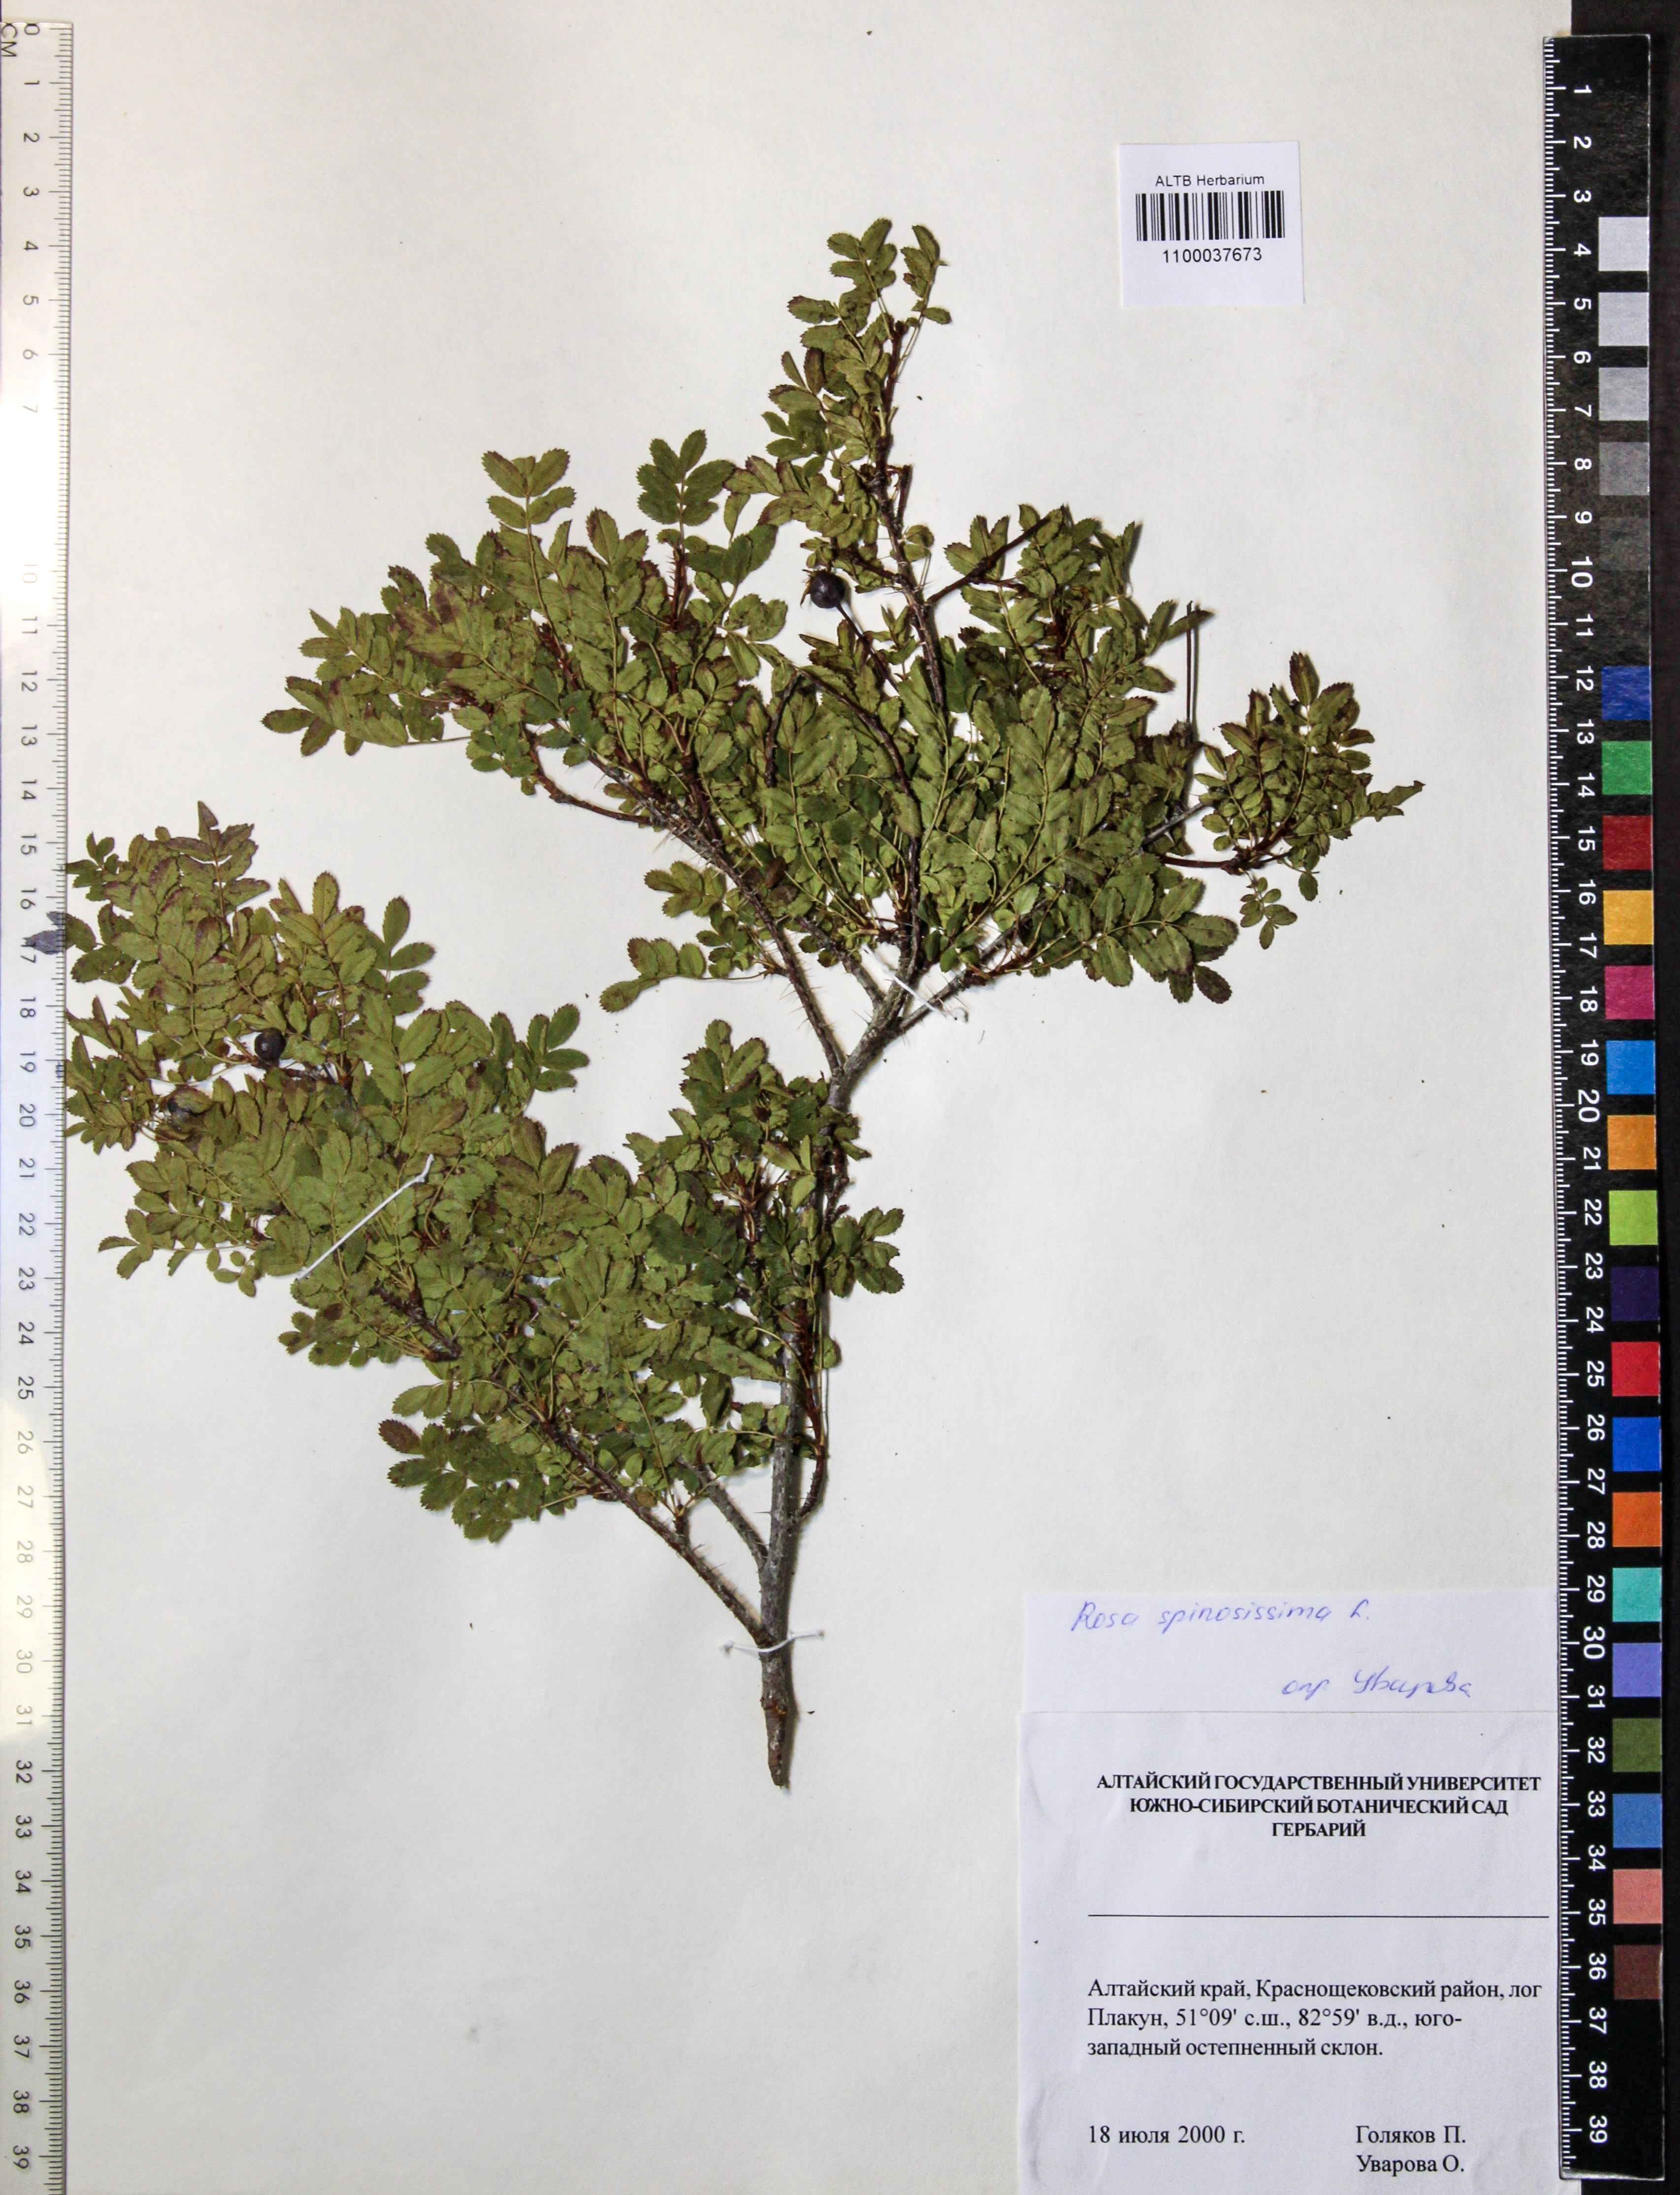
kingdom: Plantae
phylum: Tracheophyta
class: Magnoliopsida
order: Rosales
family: Rosaceae
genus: Rosa
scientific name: Rosa spinosissima
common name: Burnet rose
